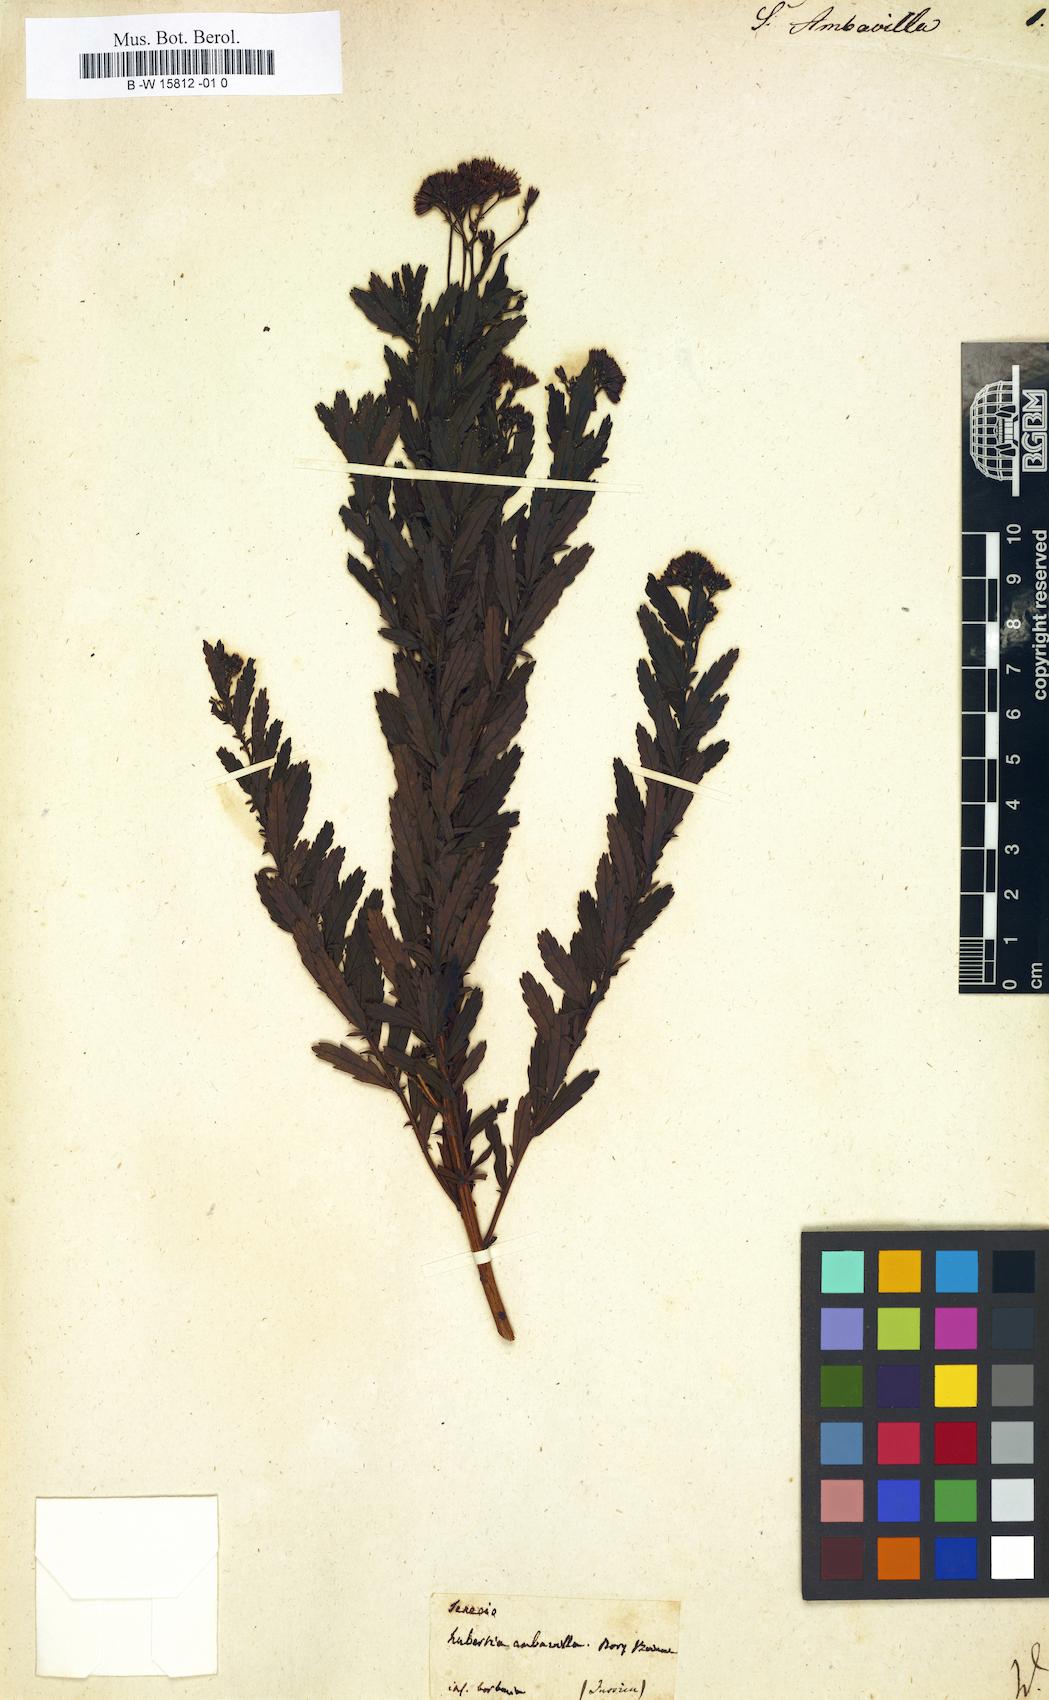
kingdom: Plantae
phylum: Tracheophyta
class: Magnoliopsida
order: Asterales
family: Asteraceae
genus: Hubertia
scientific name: Hubertia ambavilla
